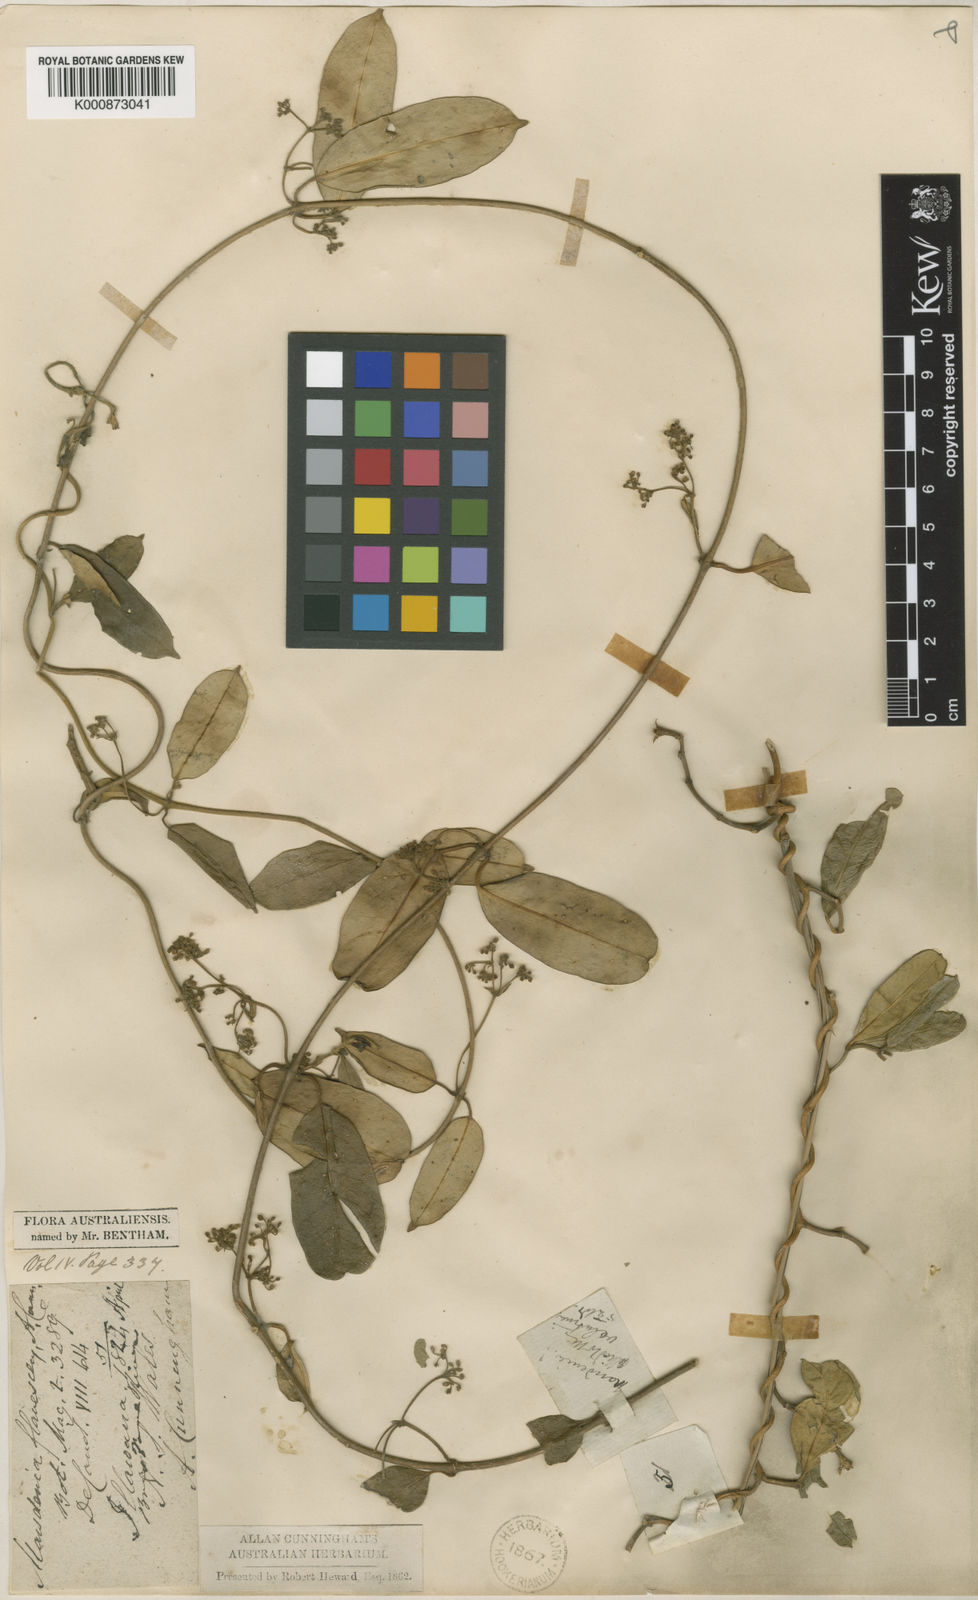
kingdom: Plantae
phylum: Tracheophyta
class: Magnoliopsida
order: Gentianales
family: Apocynaceae
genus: Marsdenia
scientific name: Marsdenia
